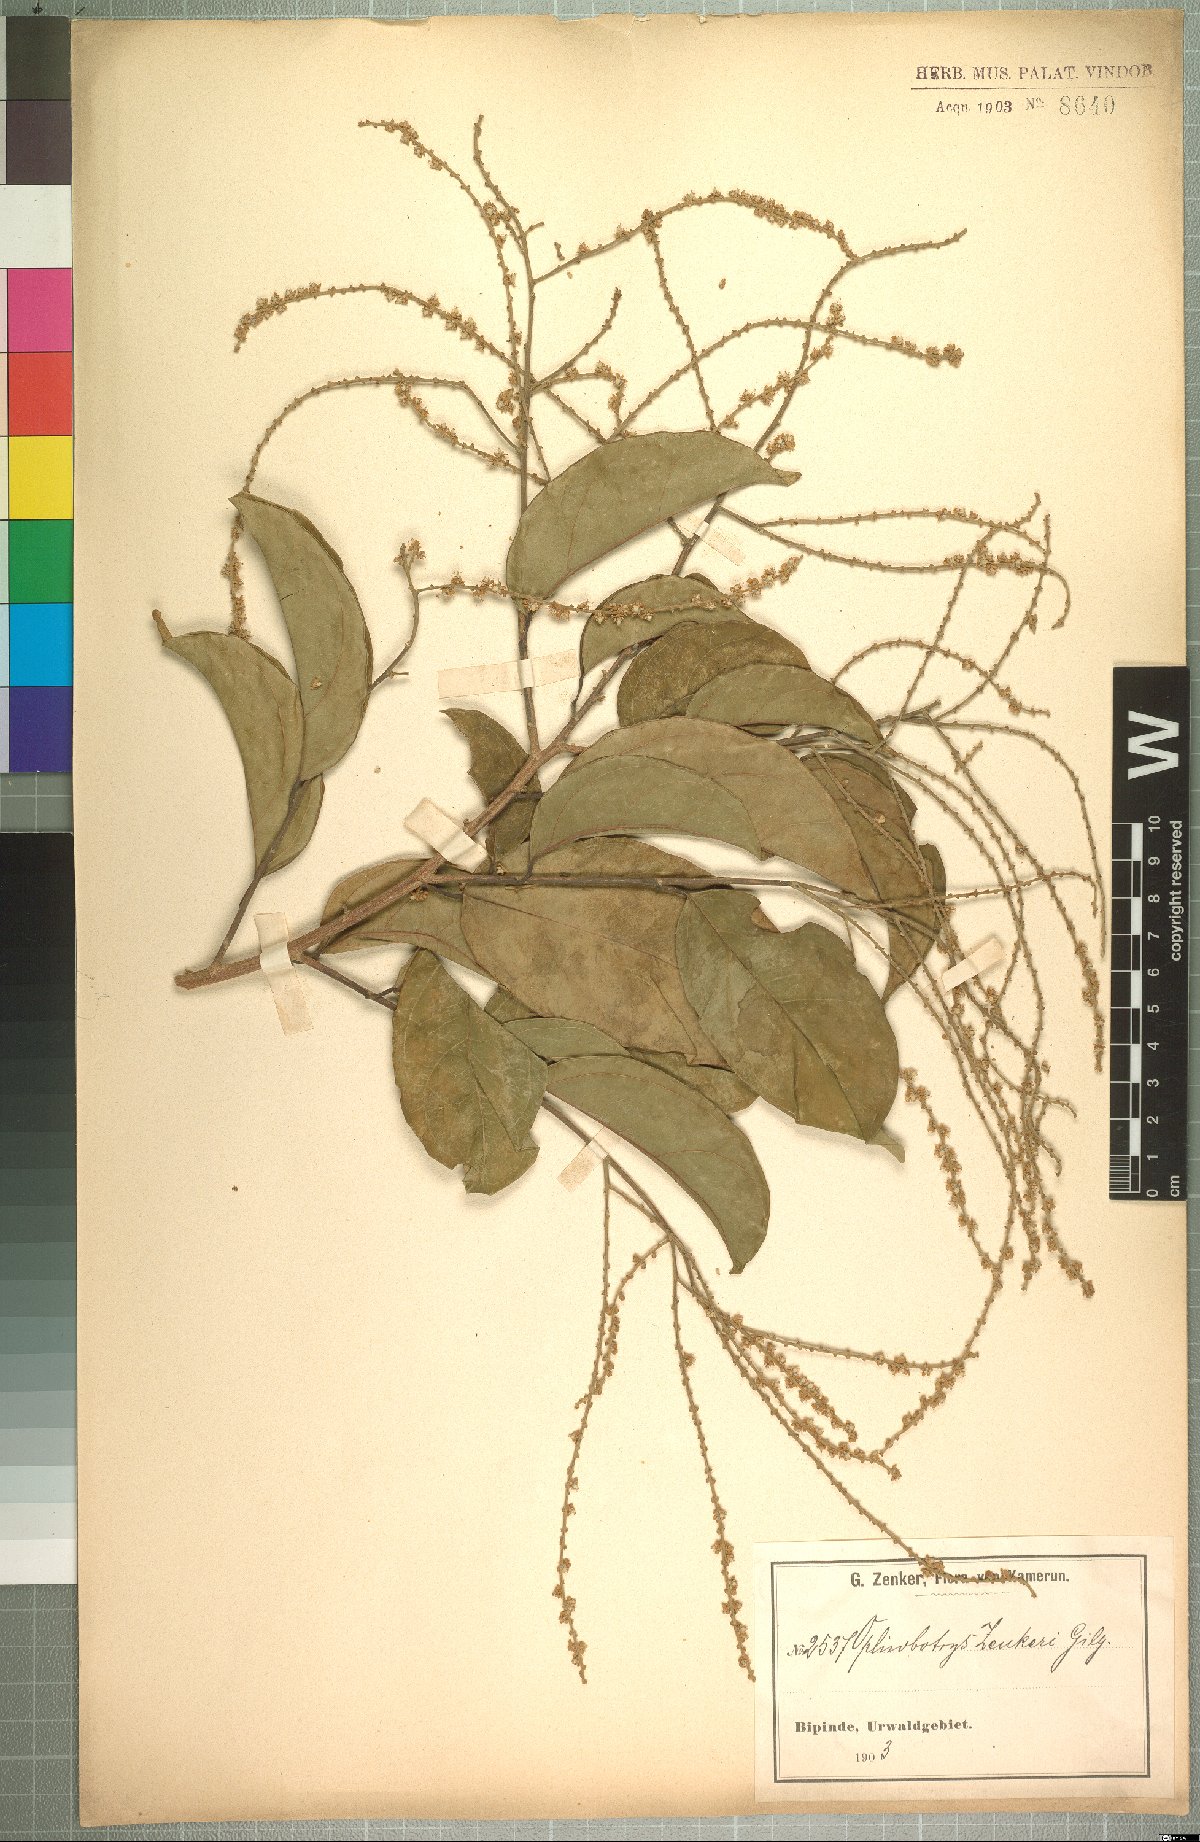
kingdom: Plantae
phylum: Tracheophyta
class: Magnoliopsida
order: Malpighiales
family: Salicaceae
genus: Ophiobotrys
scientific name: Ophiobotrys zenkeri
